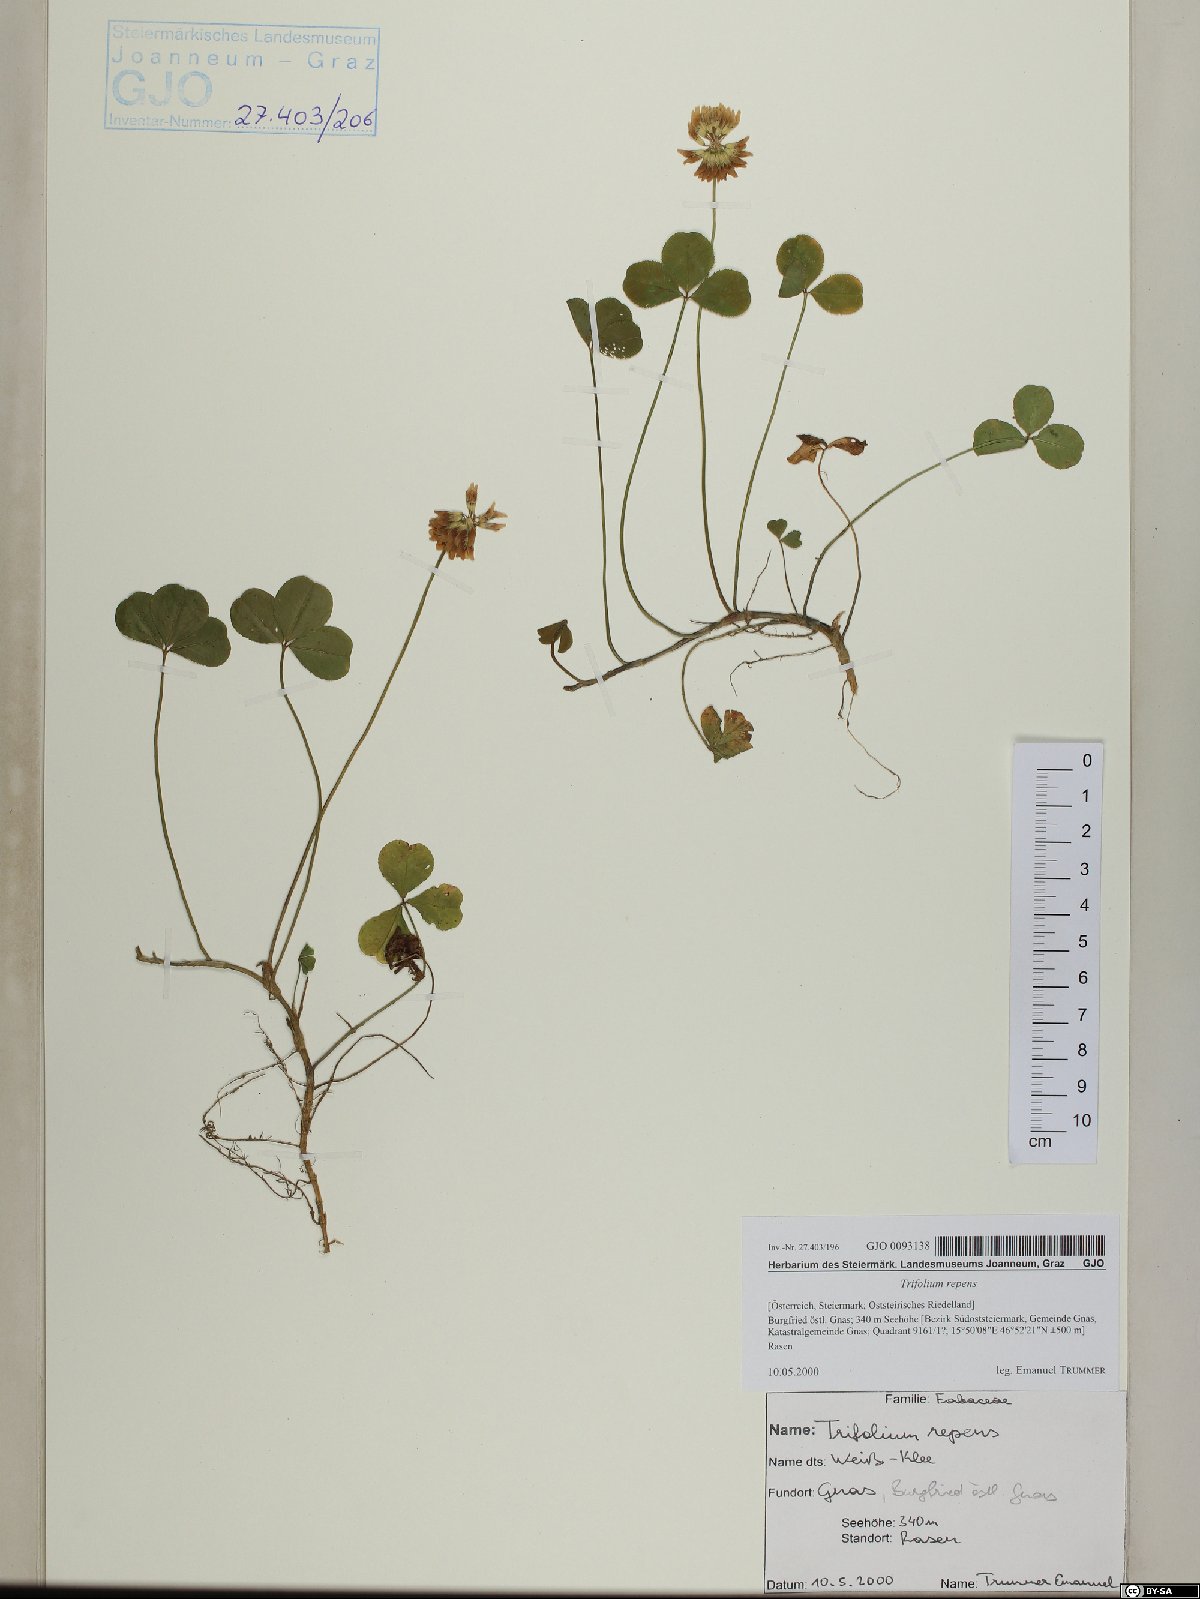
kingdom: Plantae
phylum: Tracheophyta
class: Magnoliopsida
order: Fabales
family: Fabaceae
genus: Trifolium
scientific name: Trifolium repens
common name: White clover
